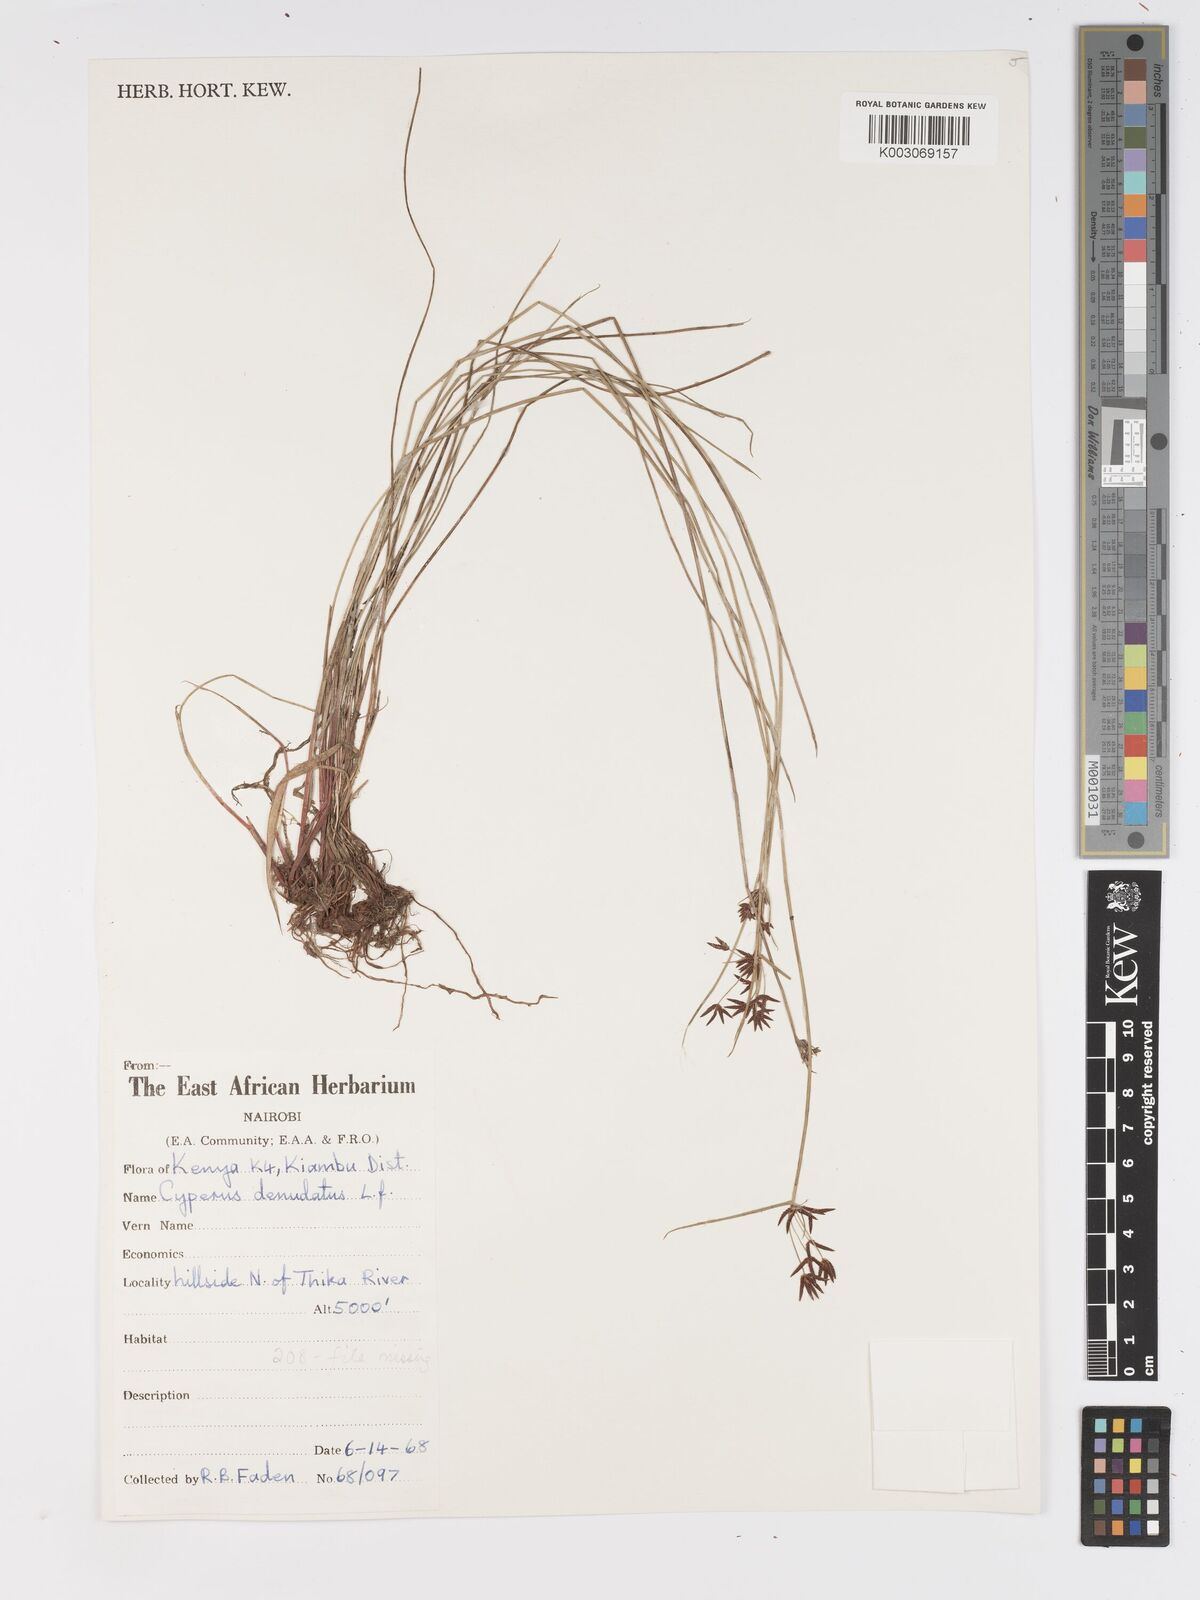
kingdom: Plantae
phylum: Tracheophyta
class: Liliopsida
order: Poales
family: Cyperaceae
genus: Cyperus
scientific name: Cyperus denudatus
